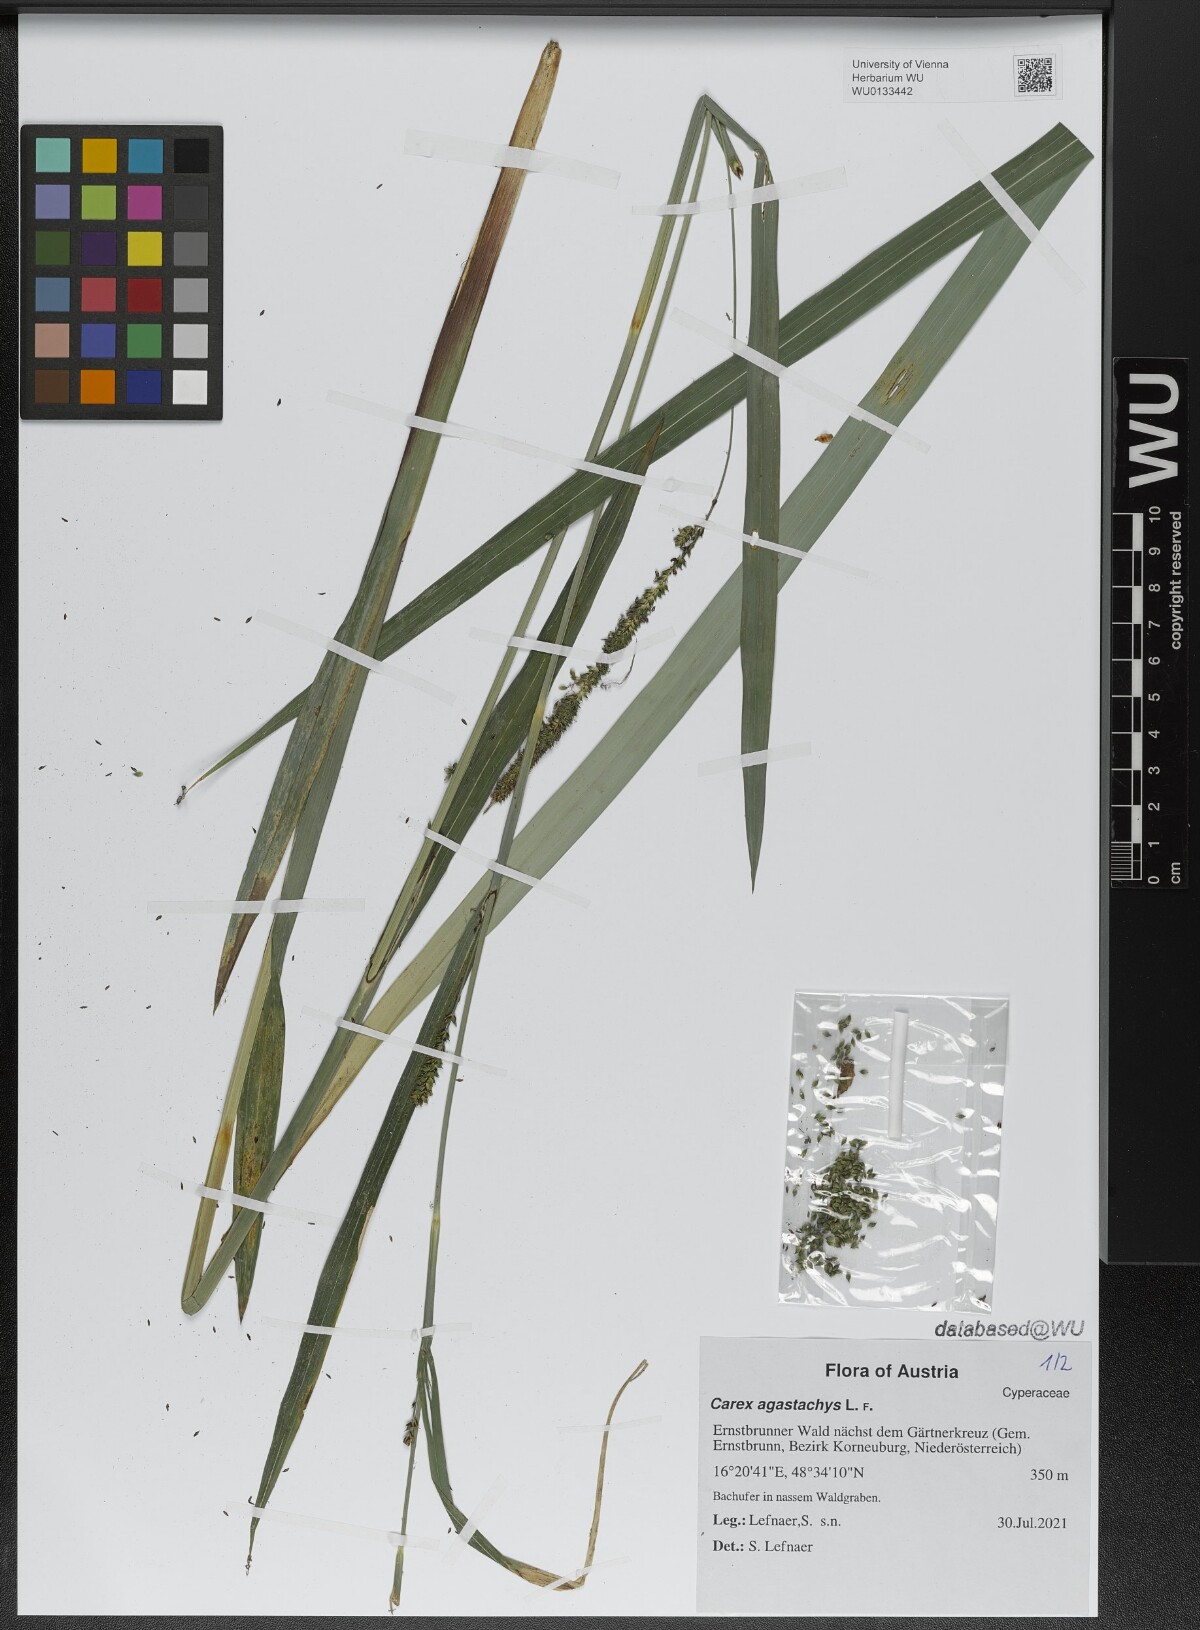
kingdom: Plantae
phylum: Tracheophyta
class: Liliopsida
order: Poales
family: Cyperaceae
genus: Carex
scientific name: Carex agastachys
